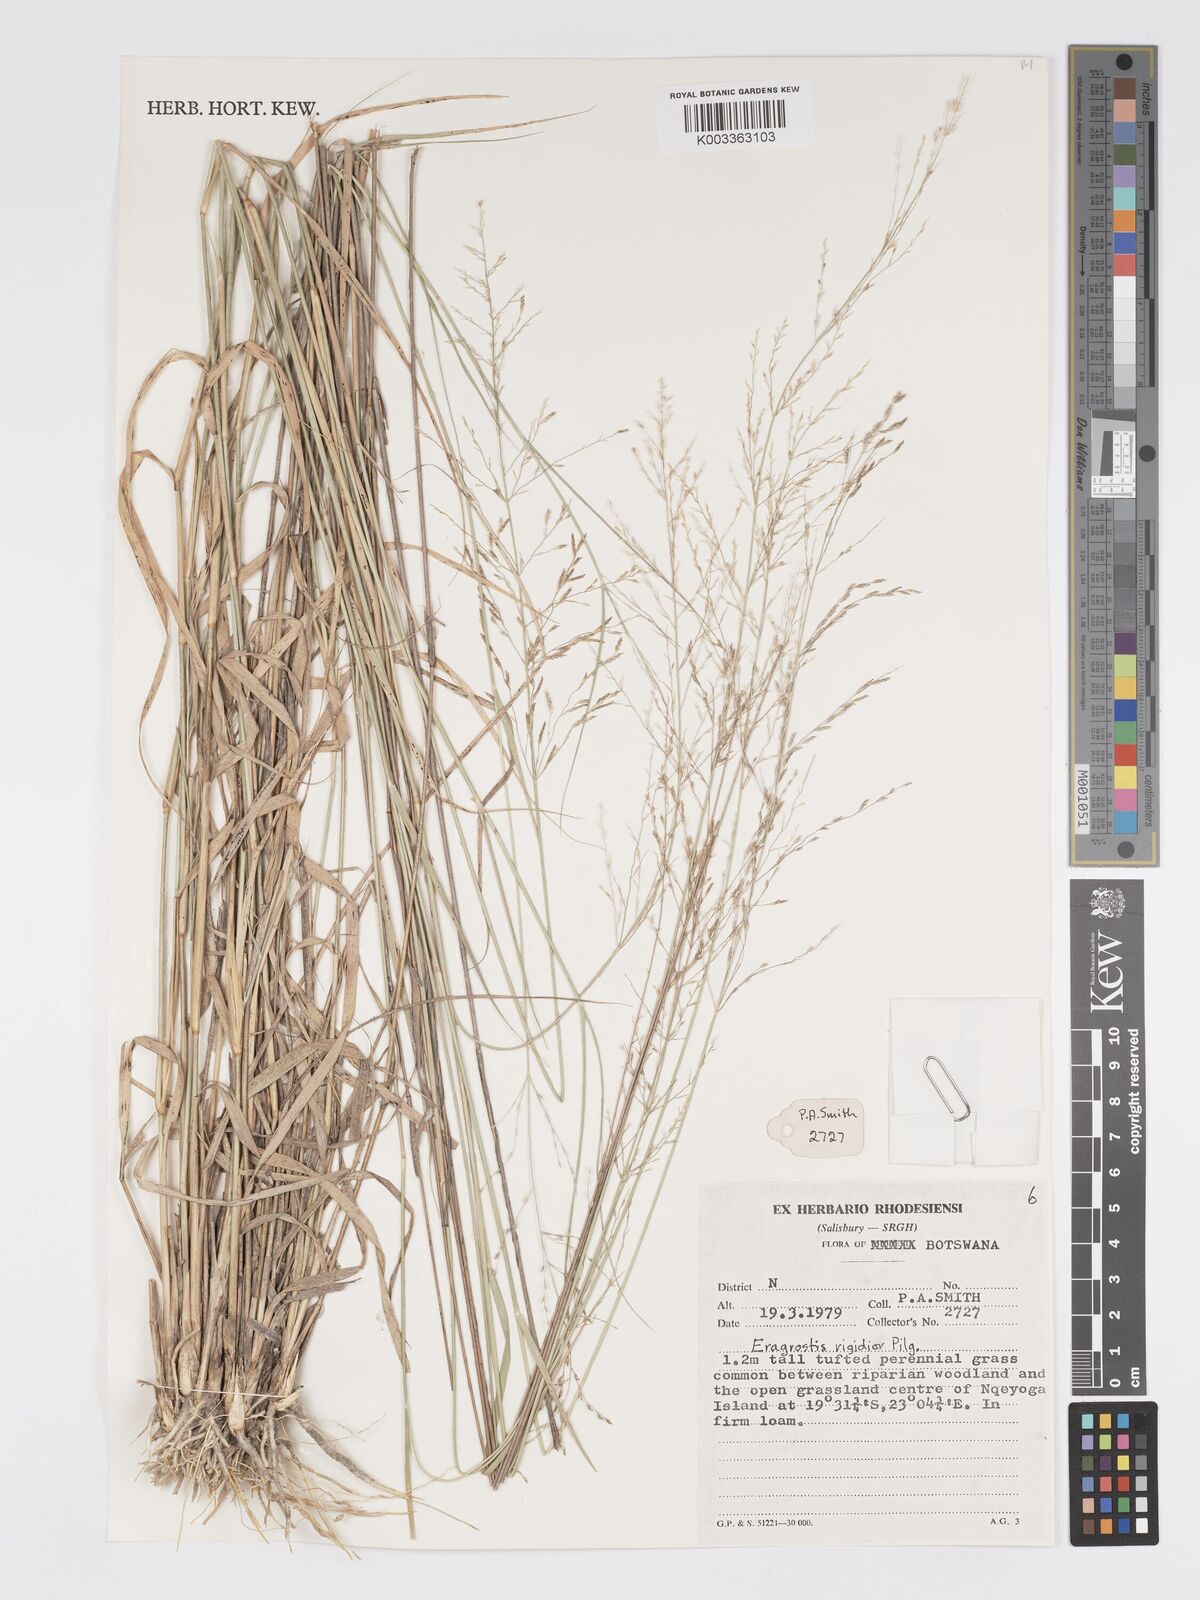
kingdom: Plantae
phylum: Tracheophyta
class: Liliopsida
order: Poales
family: Poaceae
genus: Eragrostis
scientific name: Eragrostis cylindriflora
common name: Cylinderflower lovegrass
